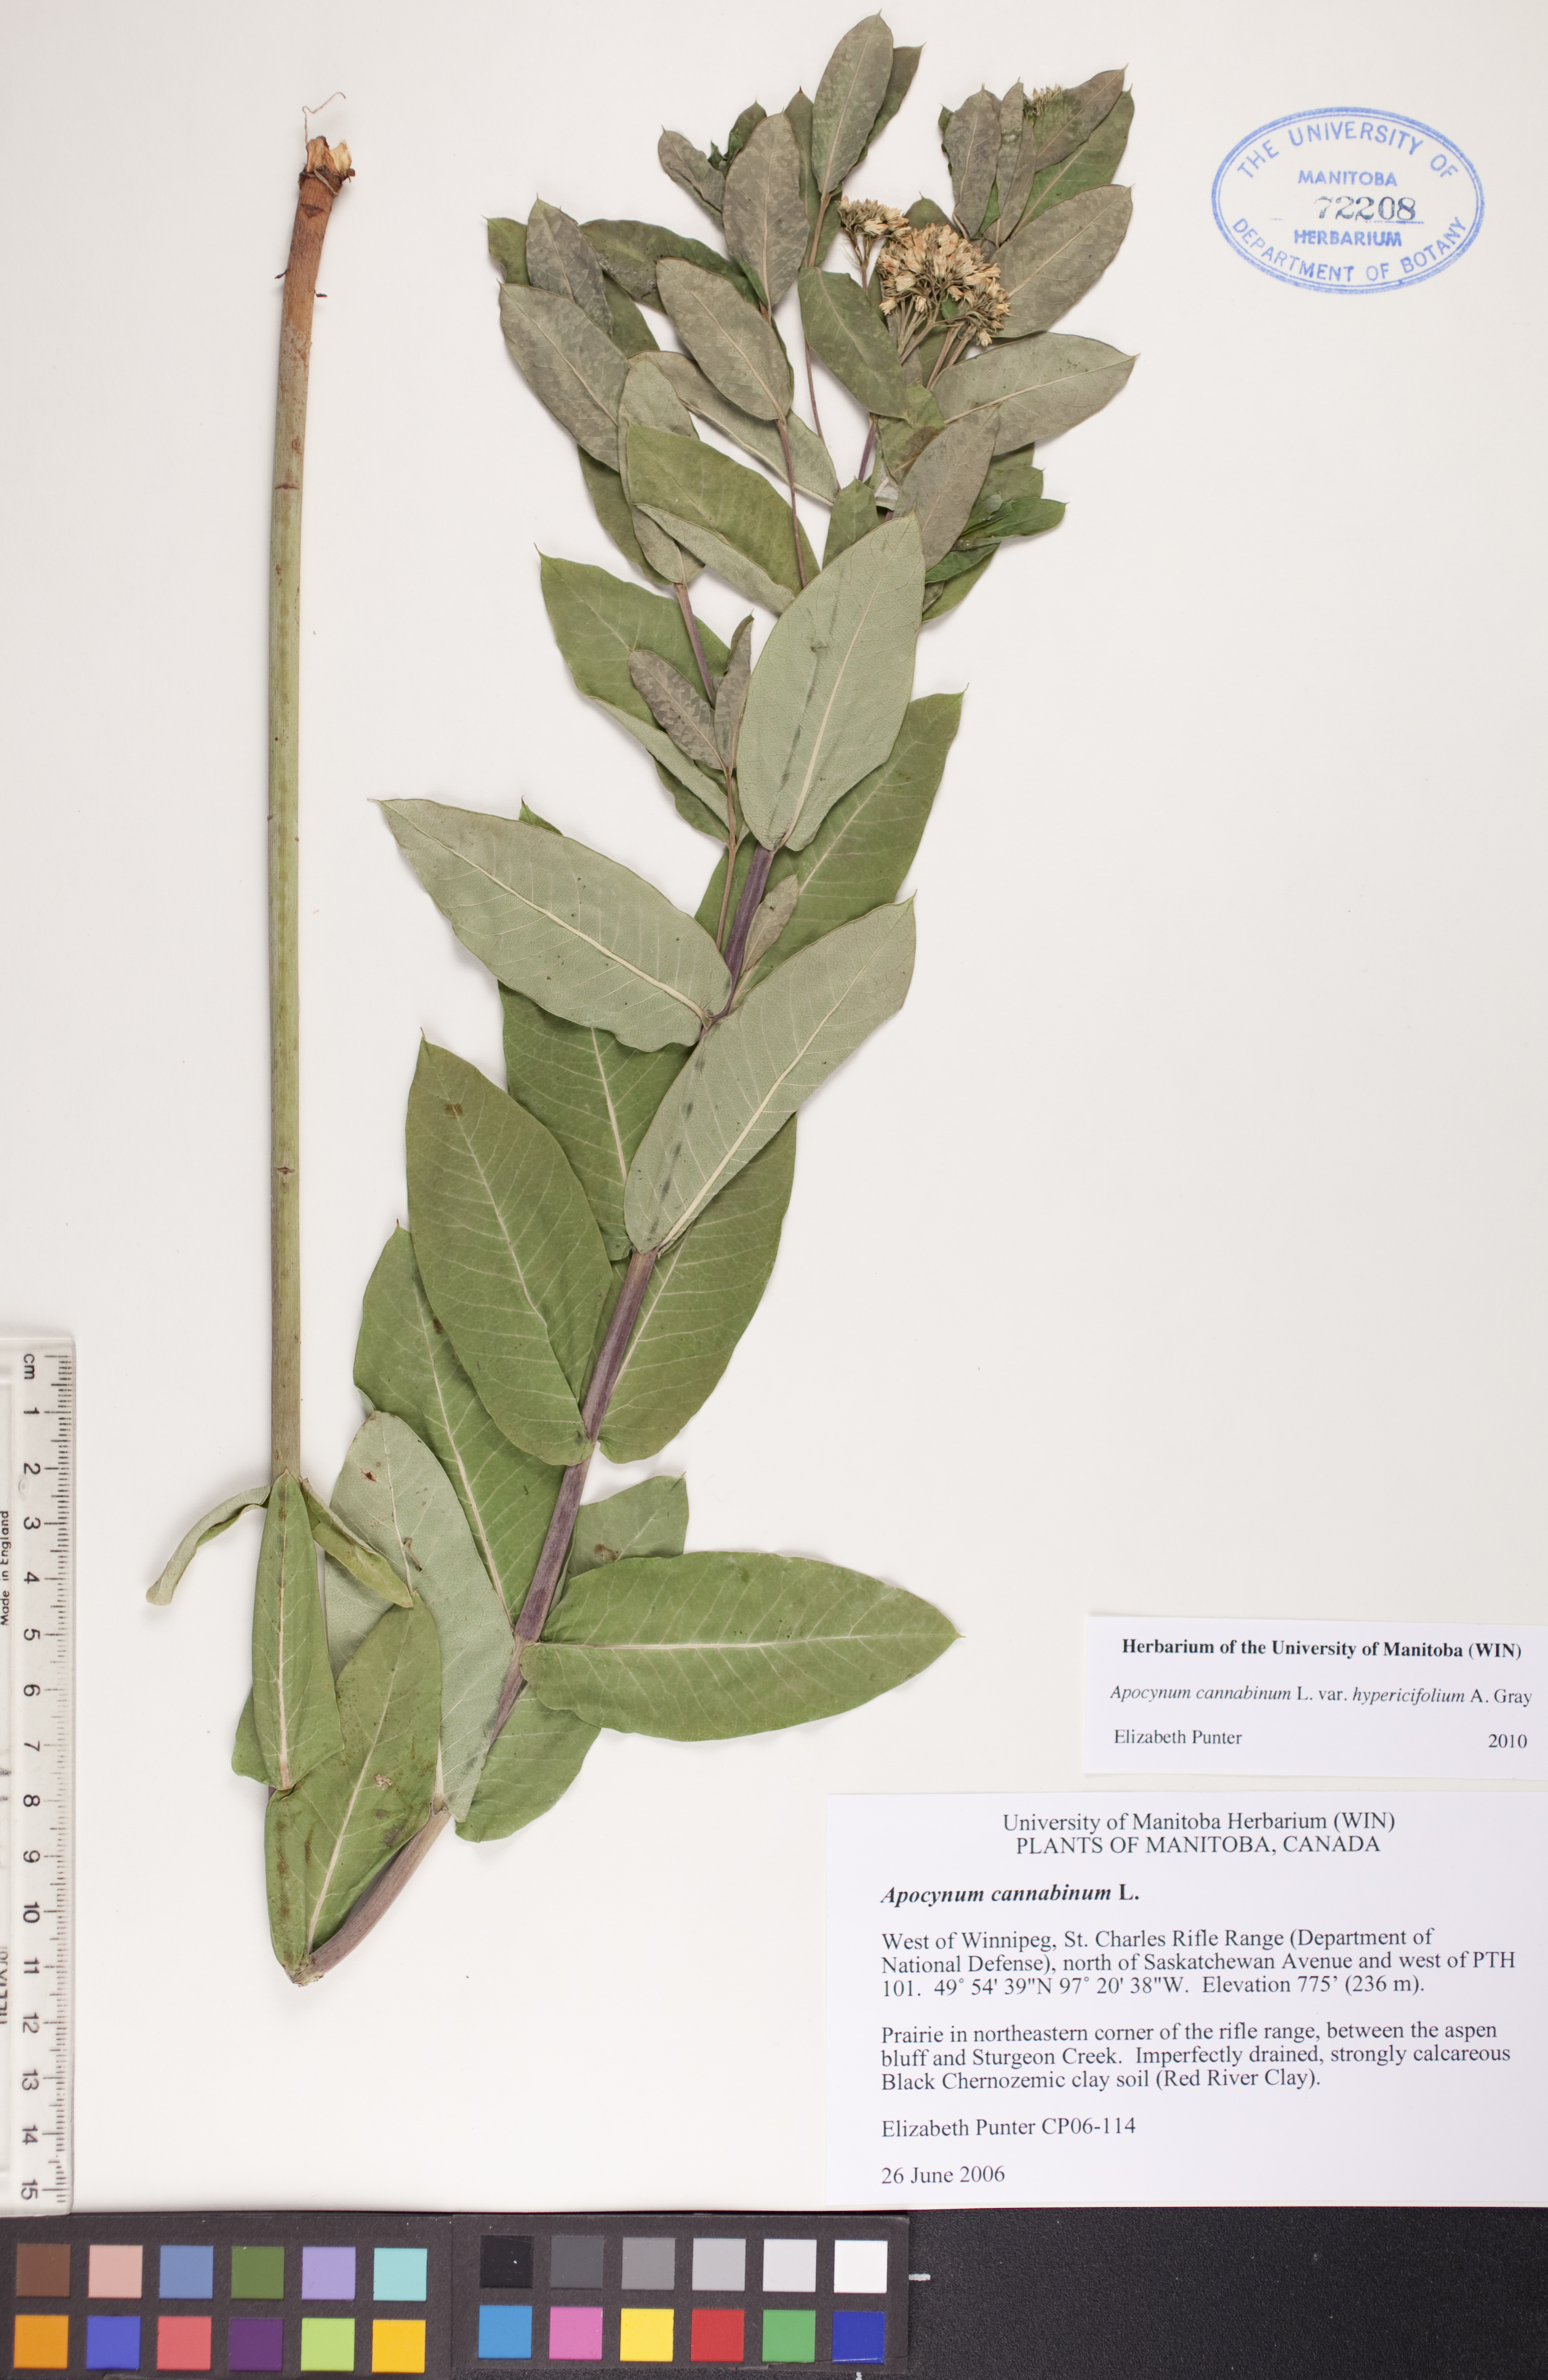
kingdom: Plantae
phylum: Tracheophyta
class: Magnoliopsida
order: Gentianales
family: Apocynaceae
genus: Apocynum
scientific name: Apocynum cannabinum
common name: Hemp dogbane
